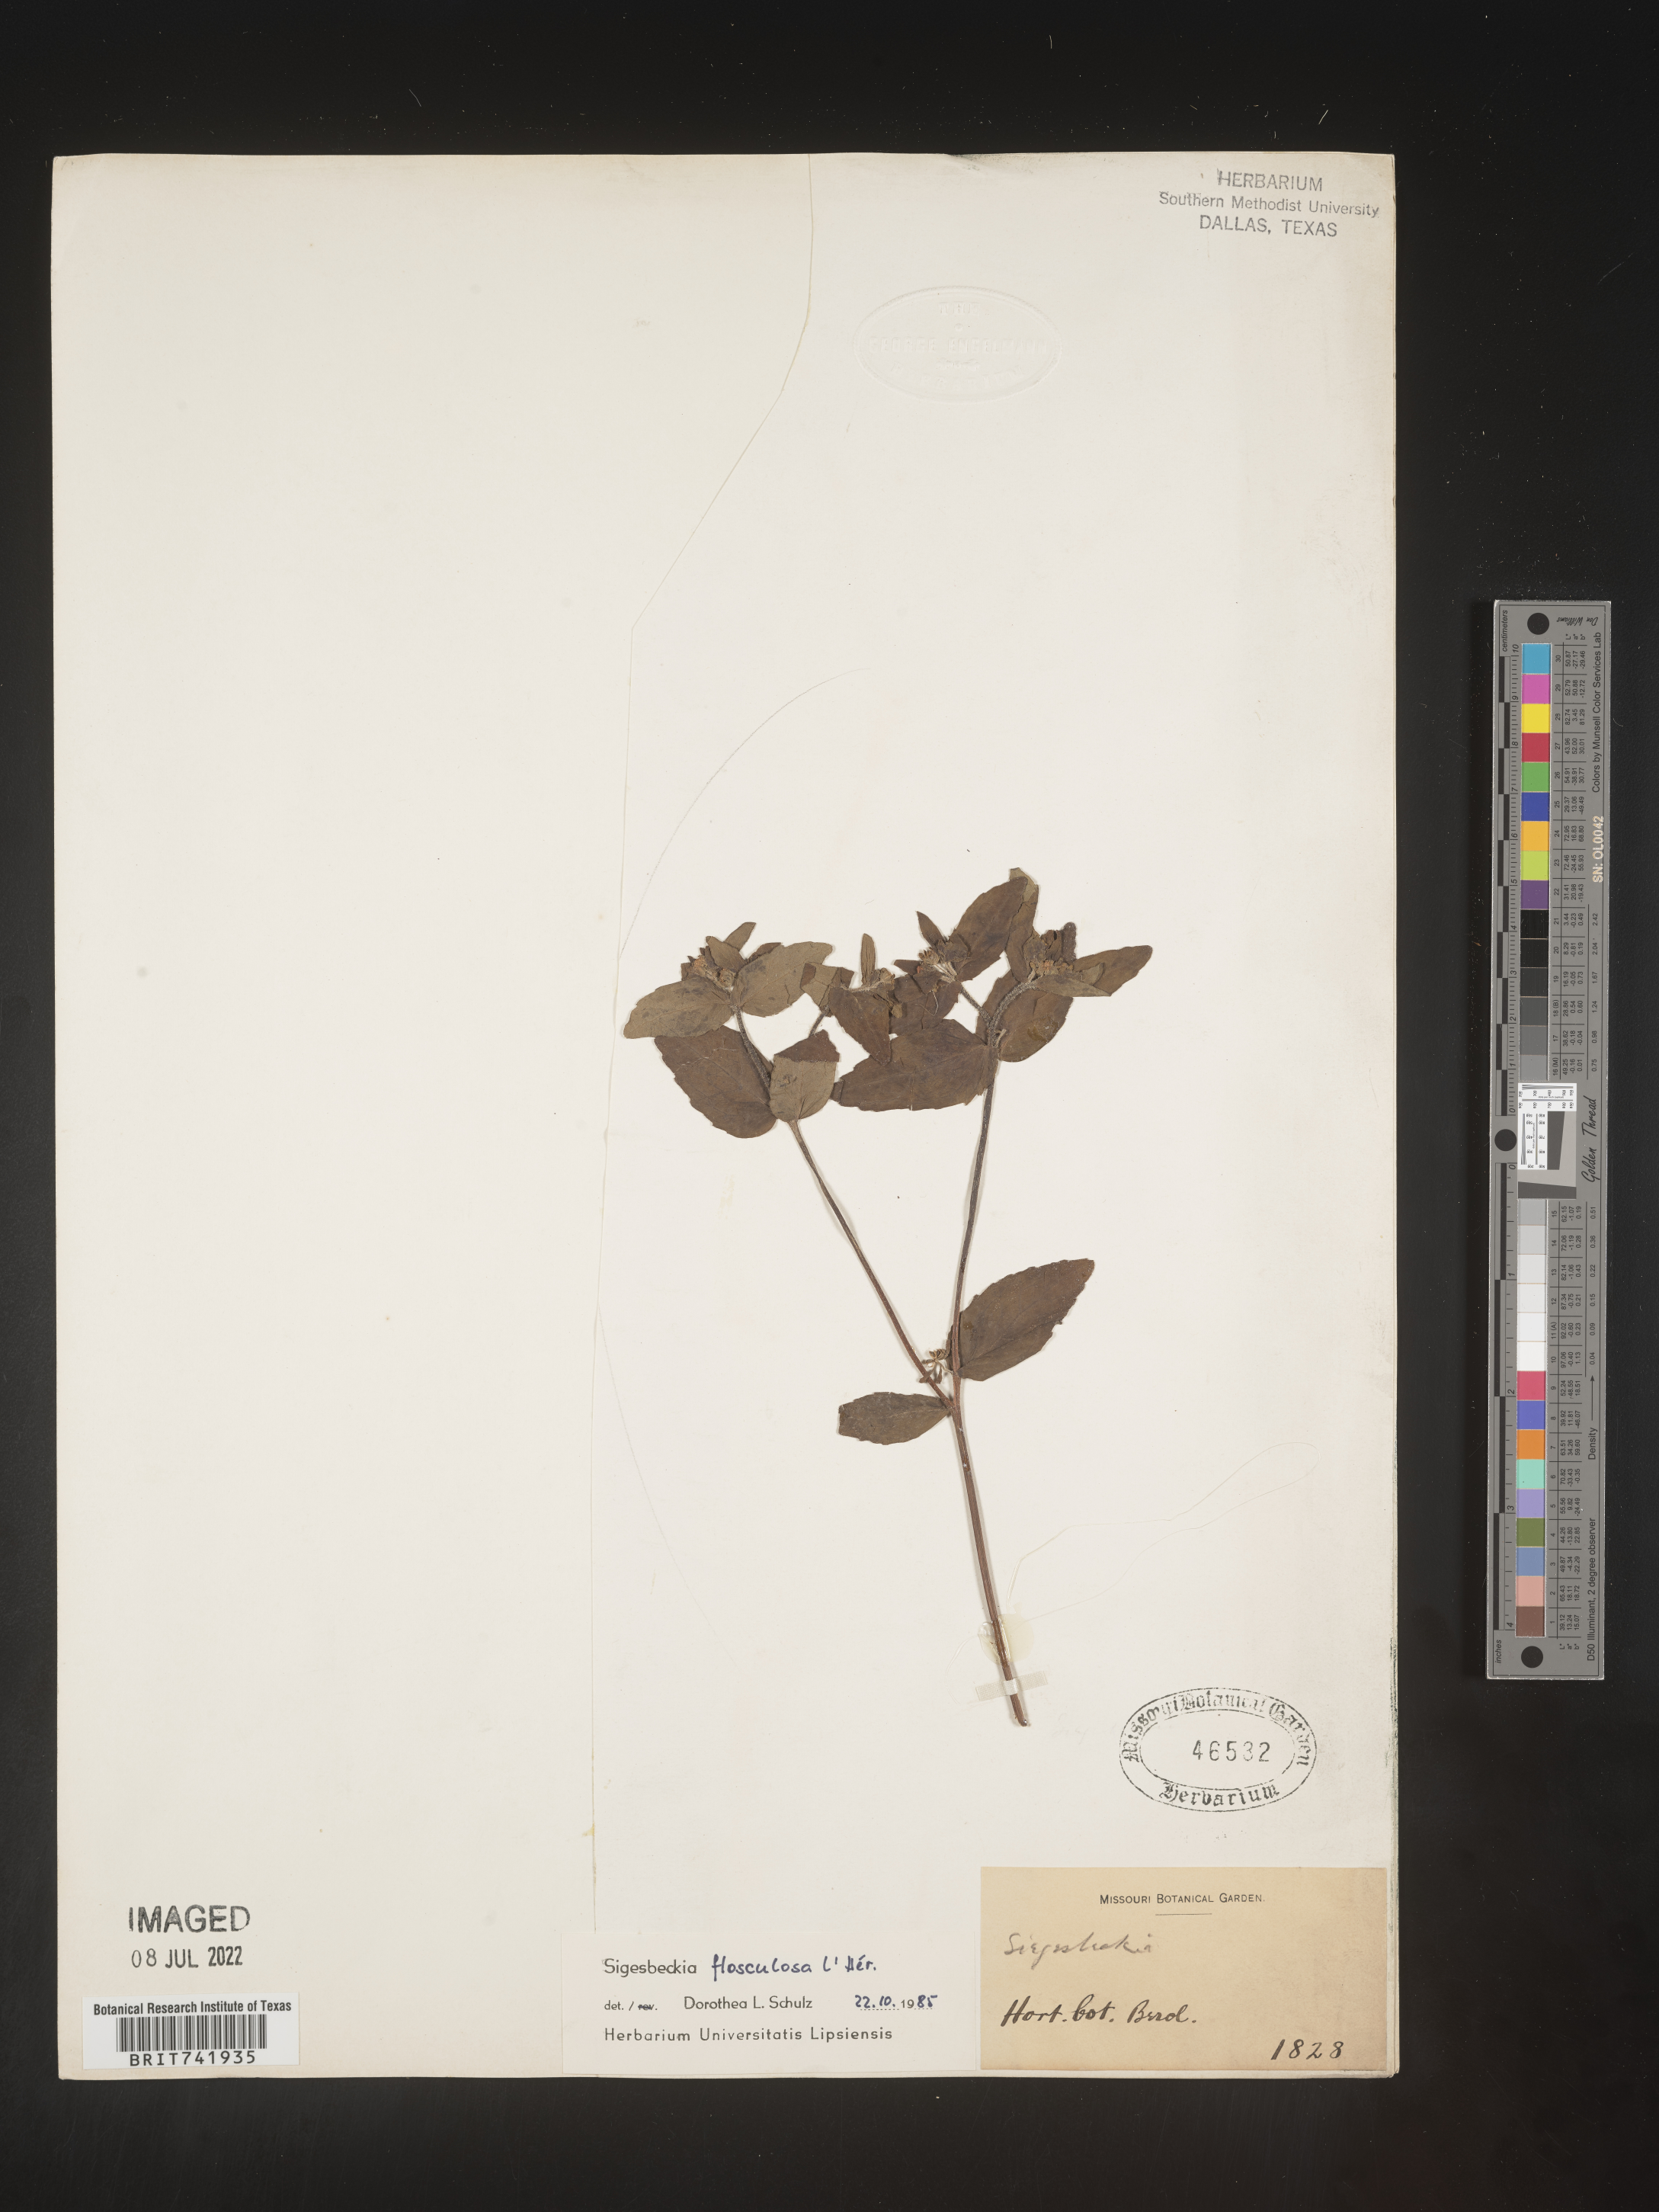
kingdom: Plantae
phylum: Tracheophyta
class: Magnoliopsida
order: Asterales
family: Asteraceae
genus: Sigesbeckia
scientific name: Sigesbeckia
